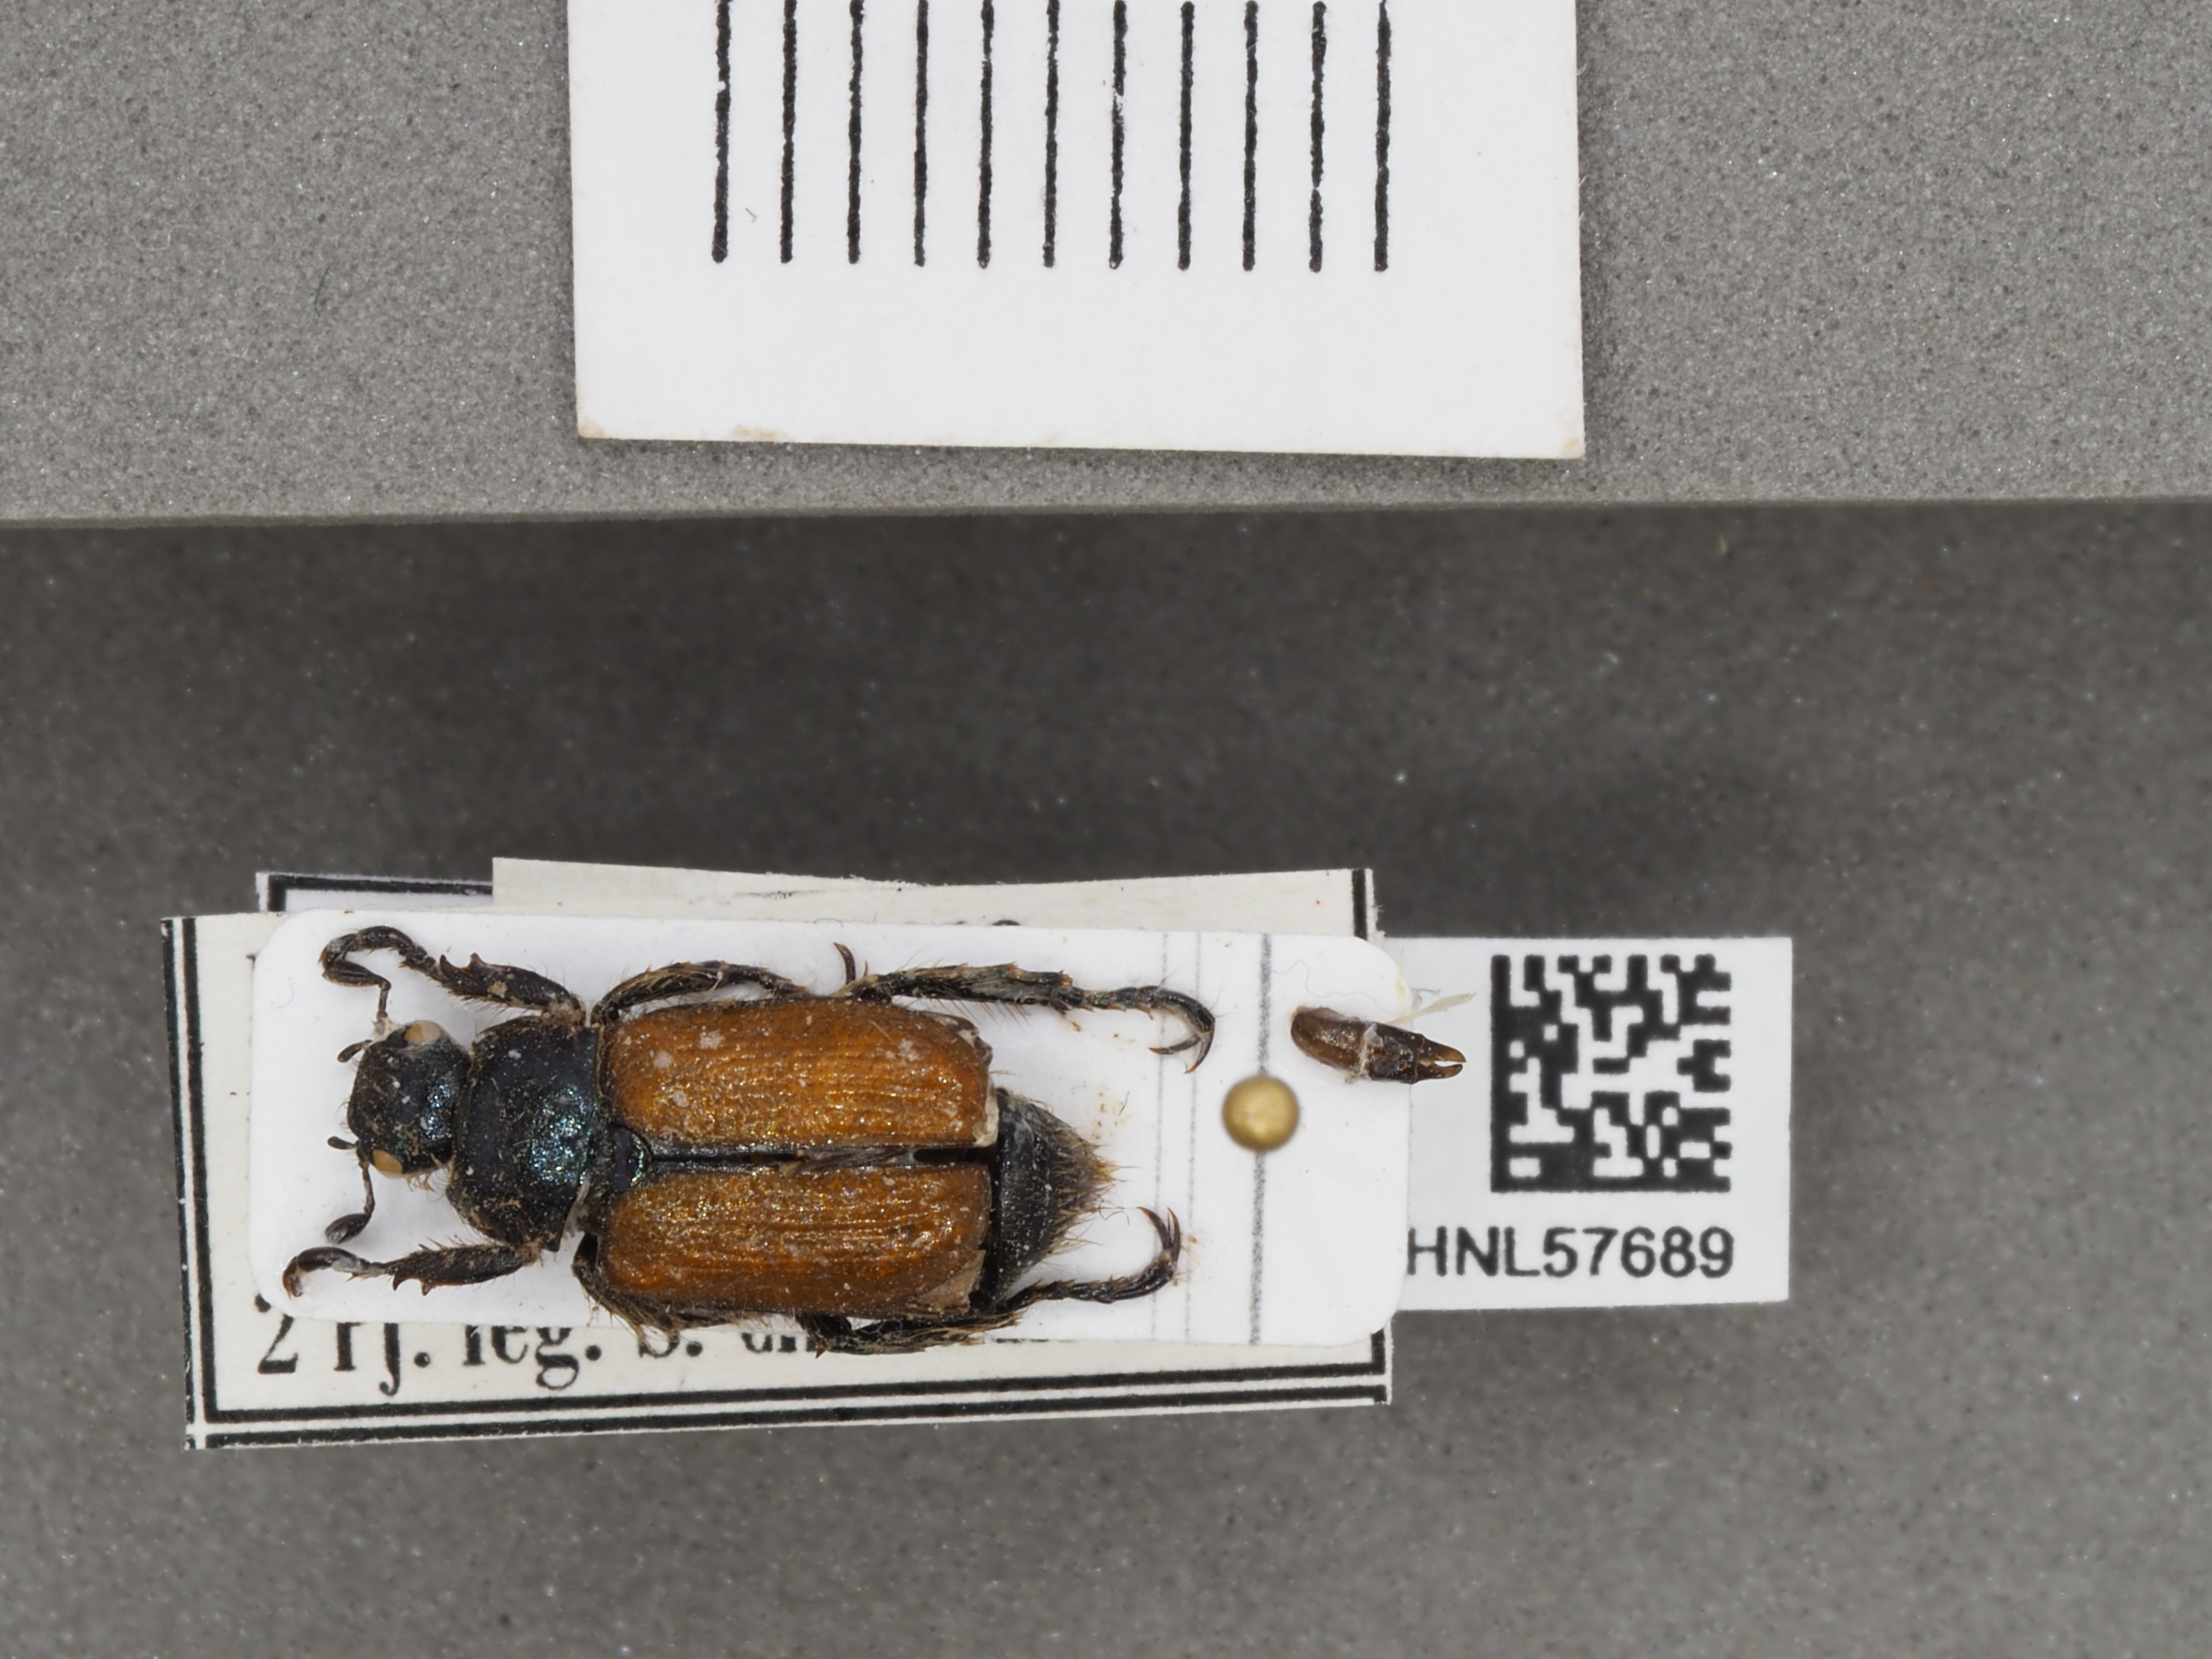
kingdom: Animalia
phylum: Arthropoda
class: Insecta
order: Coleoptera
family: Scarabaeidae
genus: Phyllopertha
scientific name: Phyllopertha horticola
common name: Garden chafer
